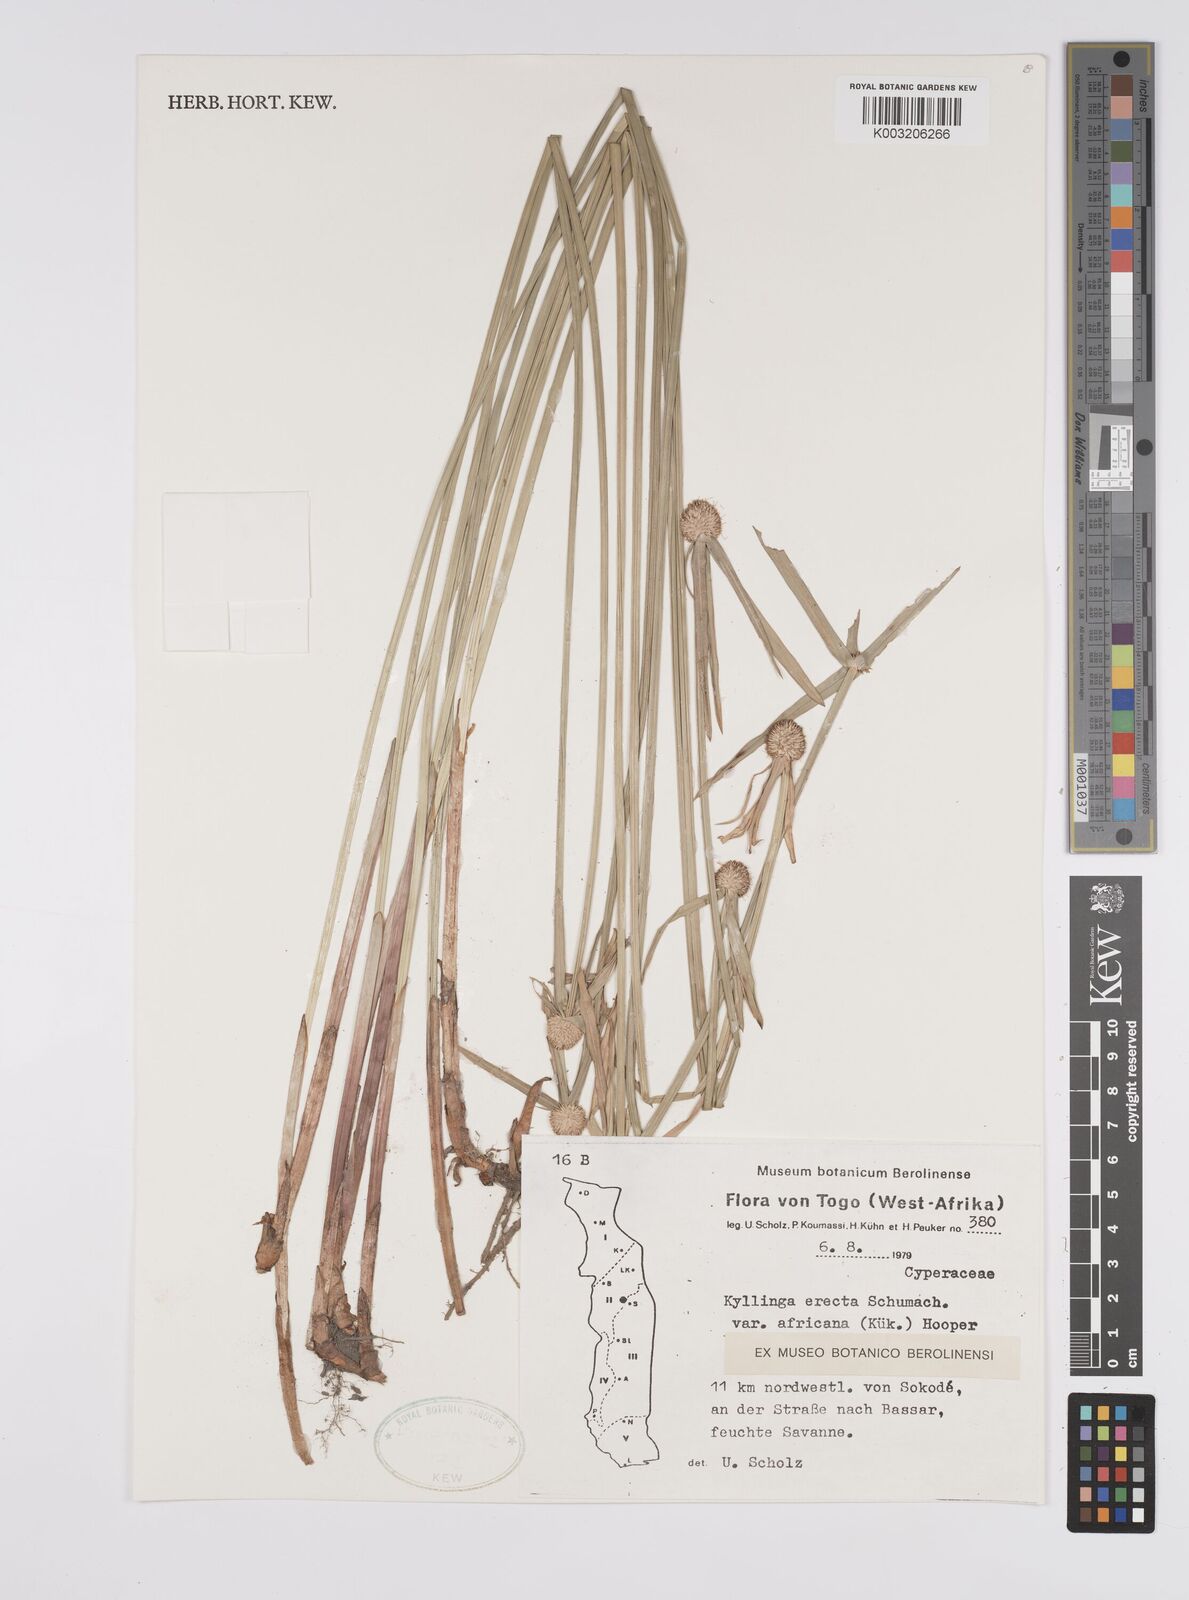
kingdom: Plantae
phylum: Tracheophyta
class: Liliopsida
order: Poales
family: Cyperaceae
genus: Cyperus
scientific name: Cyperus
